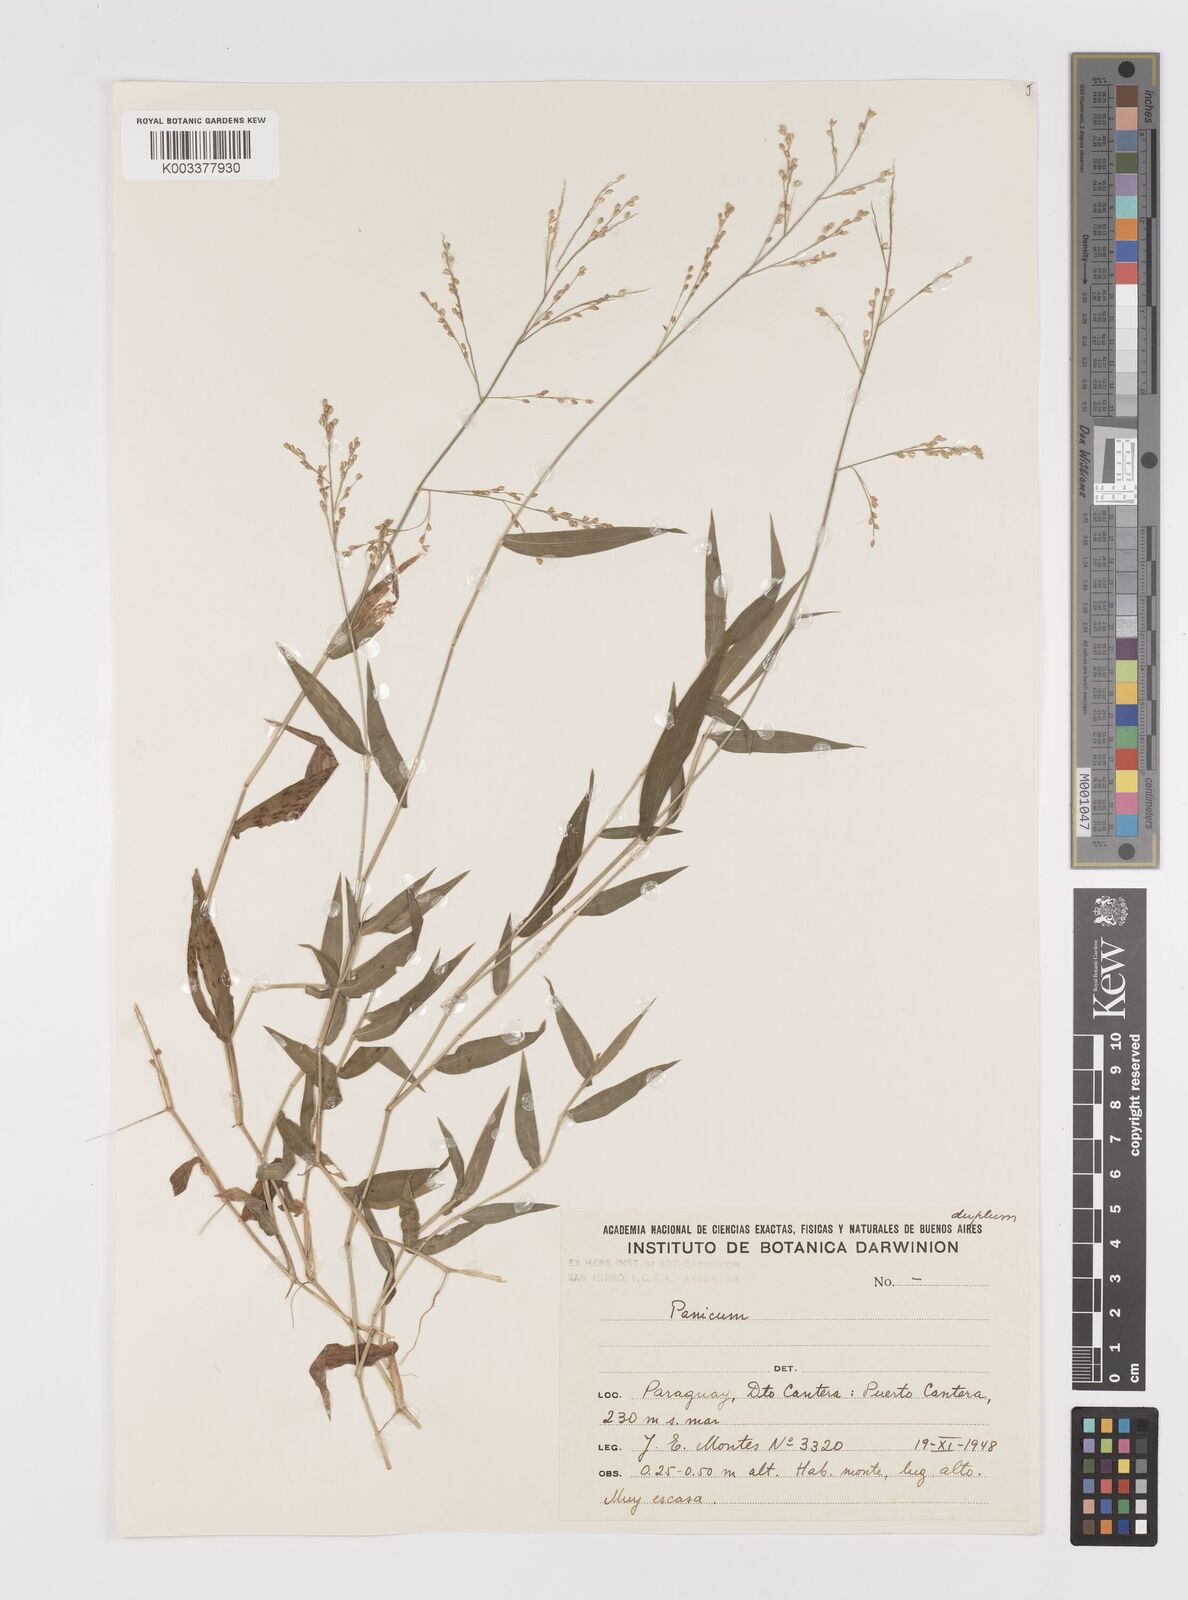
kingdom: Plantae
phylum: Tracheophyta
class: Liliopsida
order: Poales
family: Poaceae
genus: Parodiophyllochloa
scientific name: Parodiophyllochloa ovulifera
